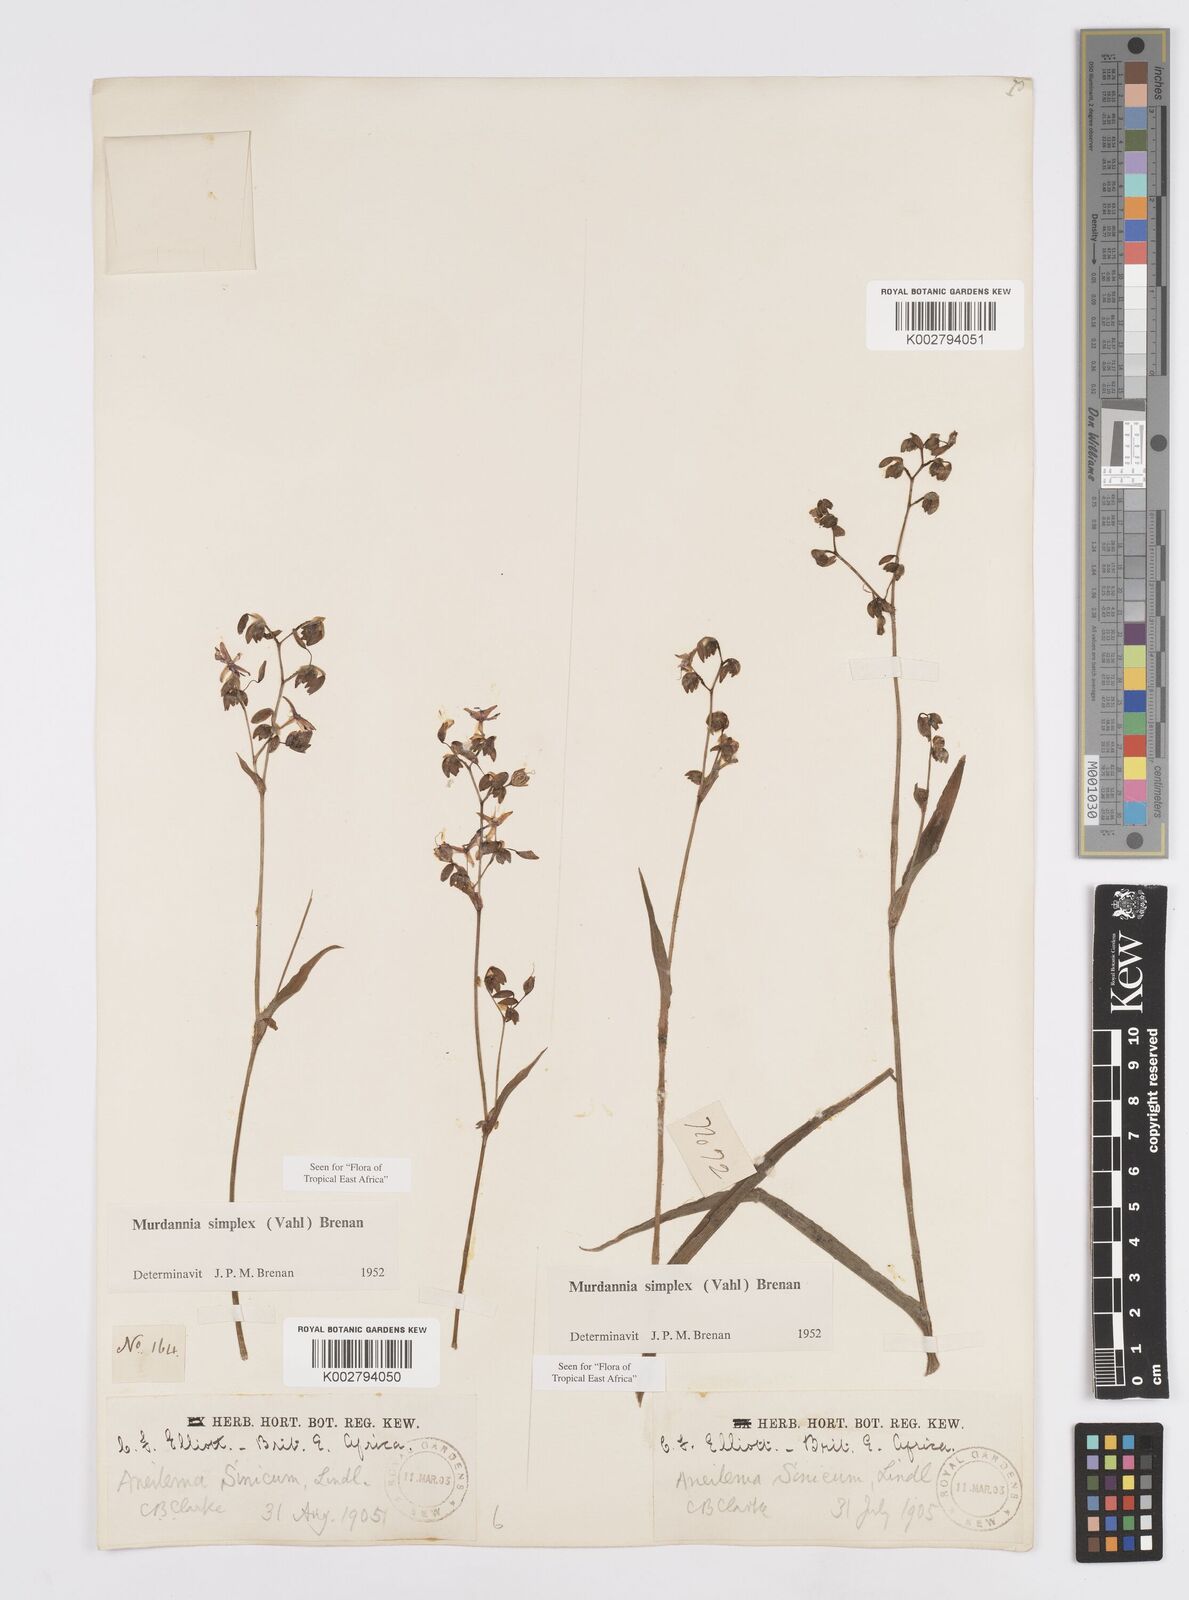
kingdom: Plantae
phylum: Tracheophyta
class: Liliopsida
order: Commelinales
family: Commelinaceae
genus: Murdannia
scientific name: Murdannia simplex
